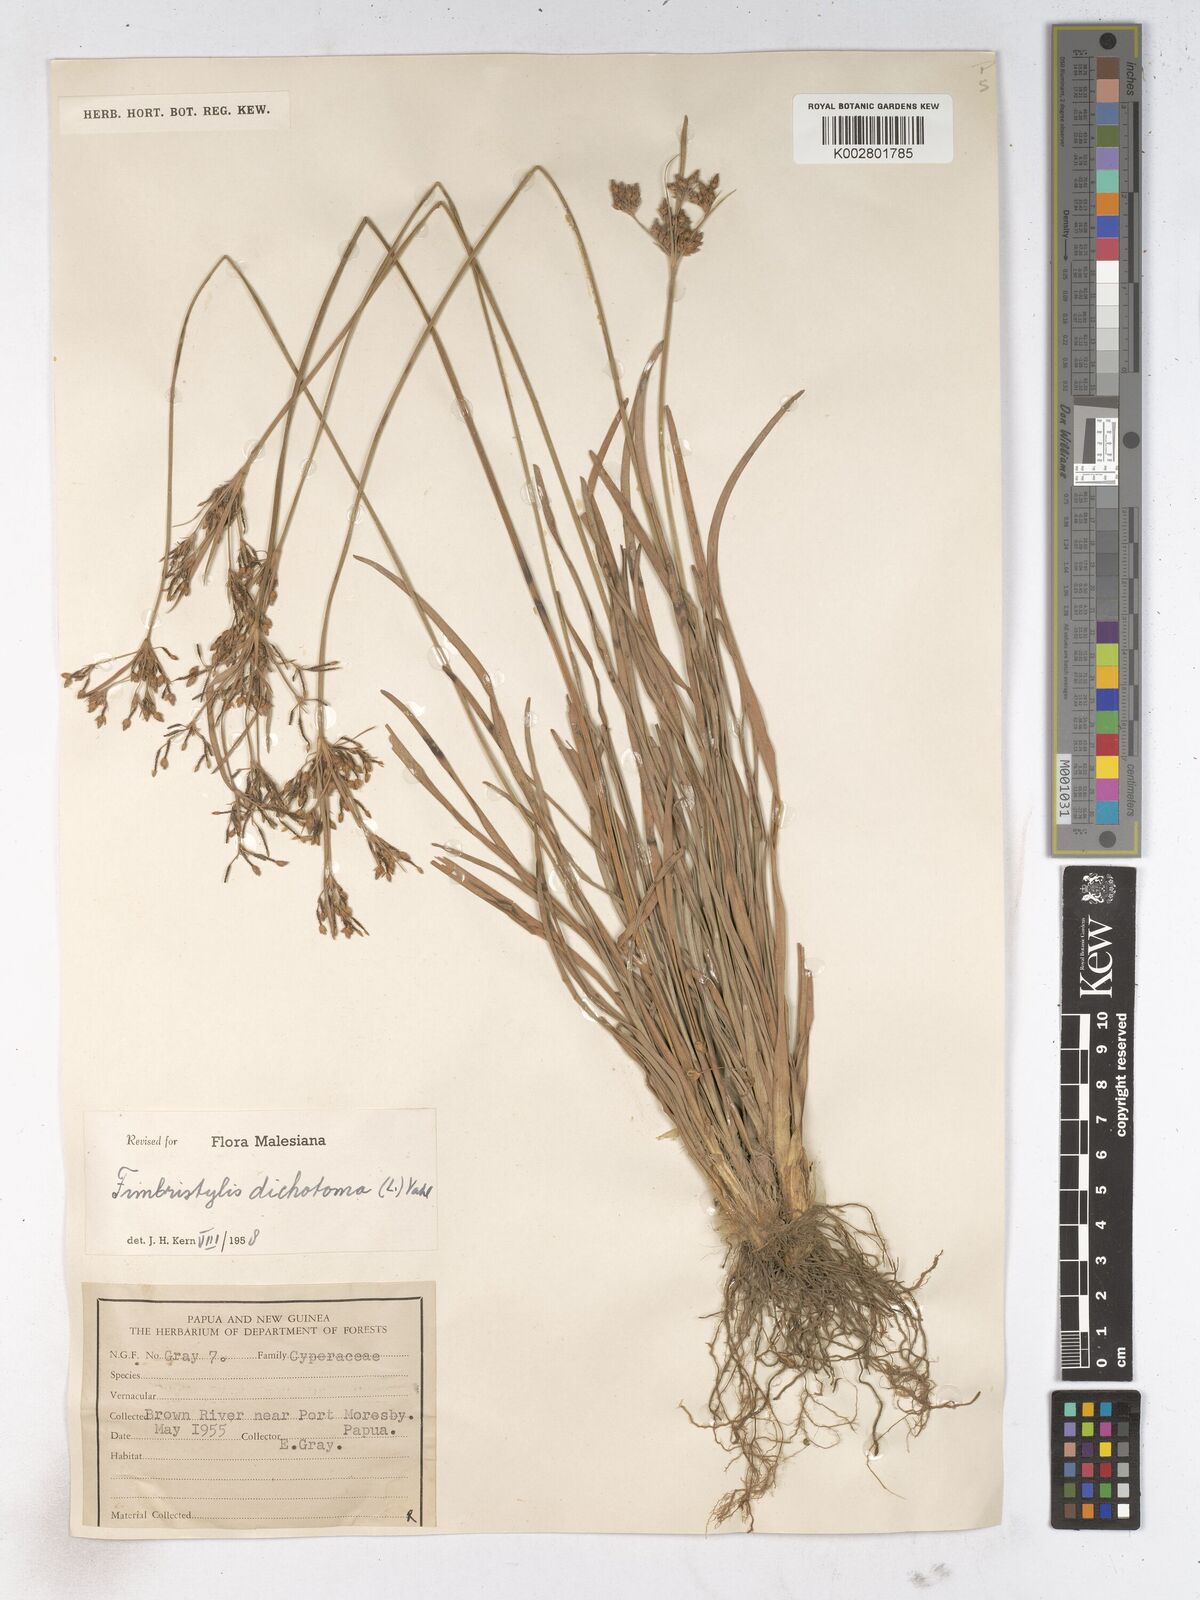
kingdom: Plantae
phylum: Tracheophyta
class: Liliopsida
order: Poales
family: Cyperaceae
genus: Fimbristylis
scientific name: Fimbristylis dichotoma
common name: Forked fimbry
